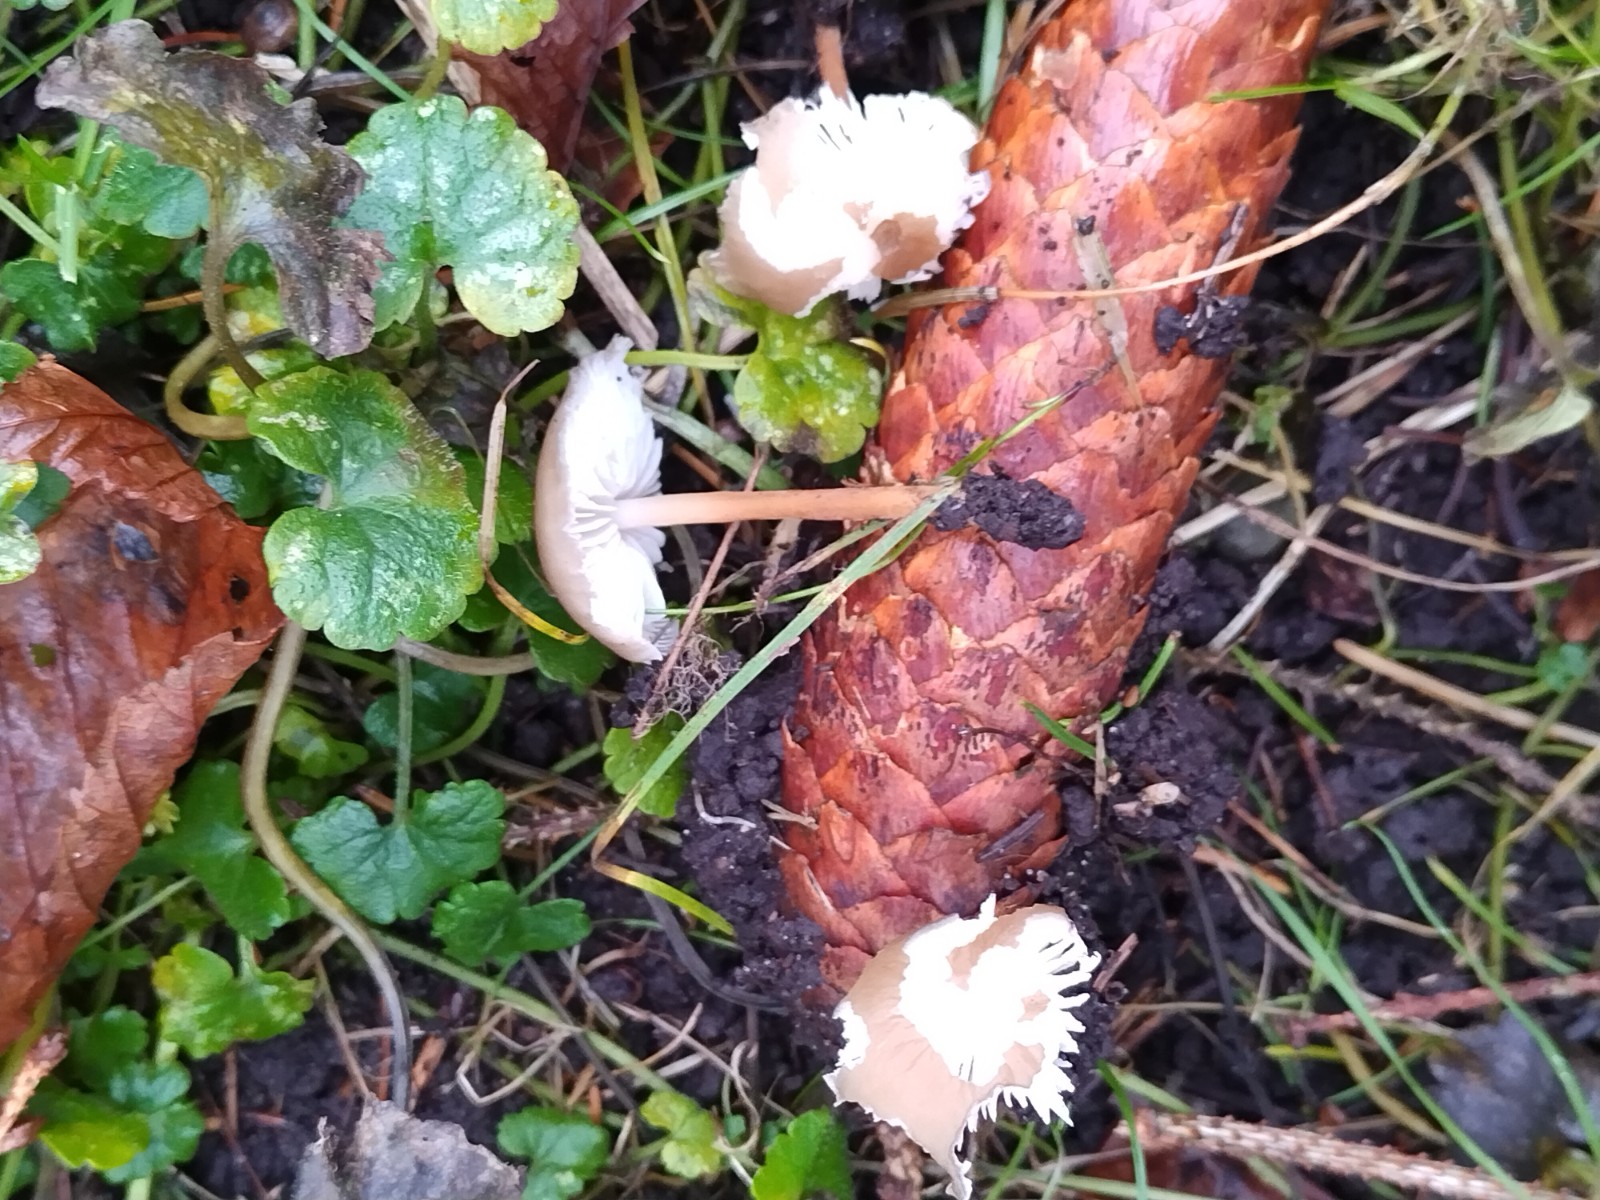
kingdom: Fungi
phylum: Basidiomycota
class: Agaricomycetes
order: Agaricales
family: Physalacriaceae
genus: Strobilurus
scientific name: Strobilurus esculentus
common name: gran-koglehat
